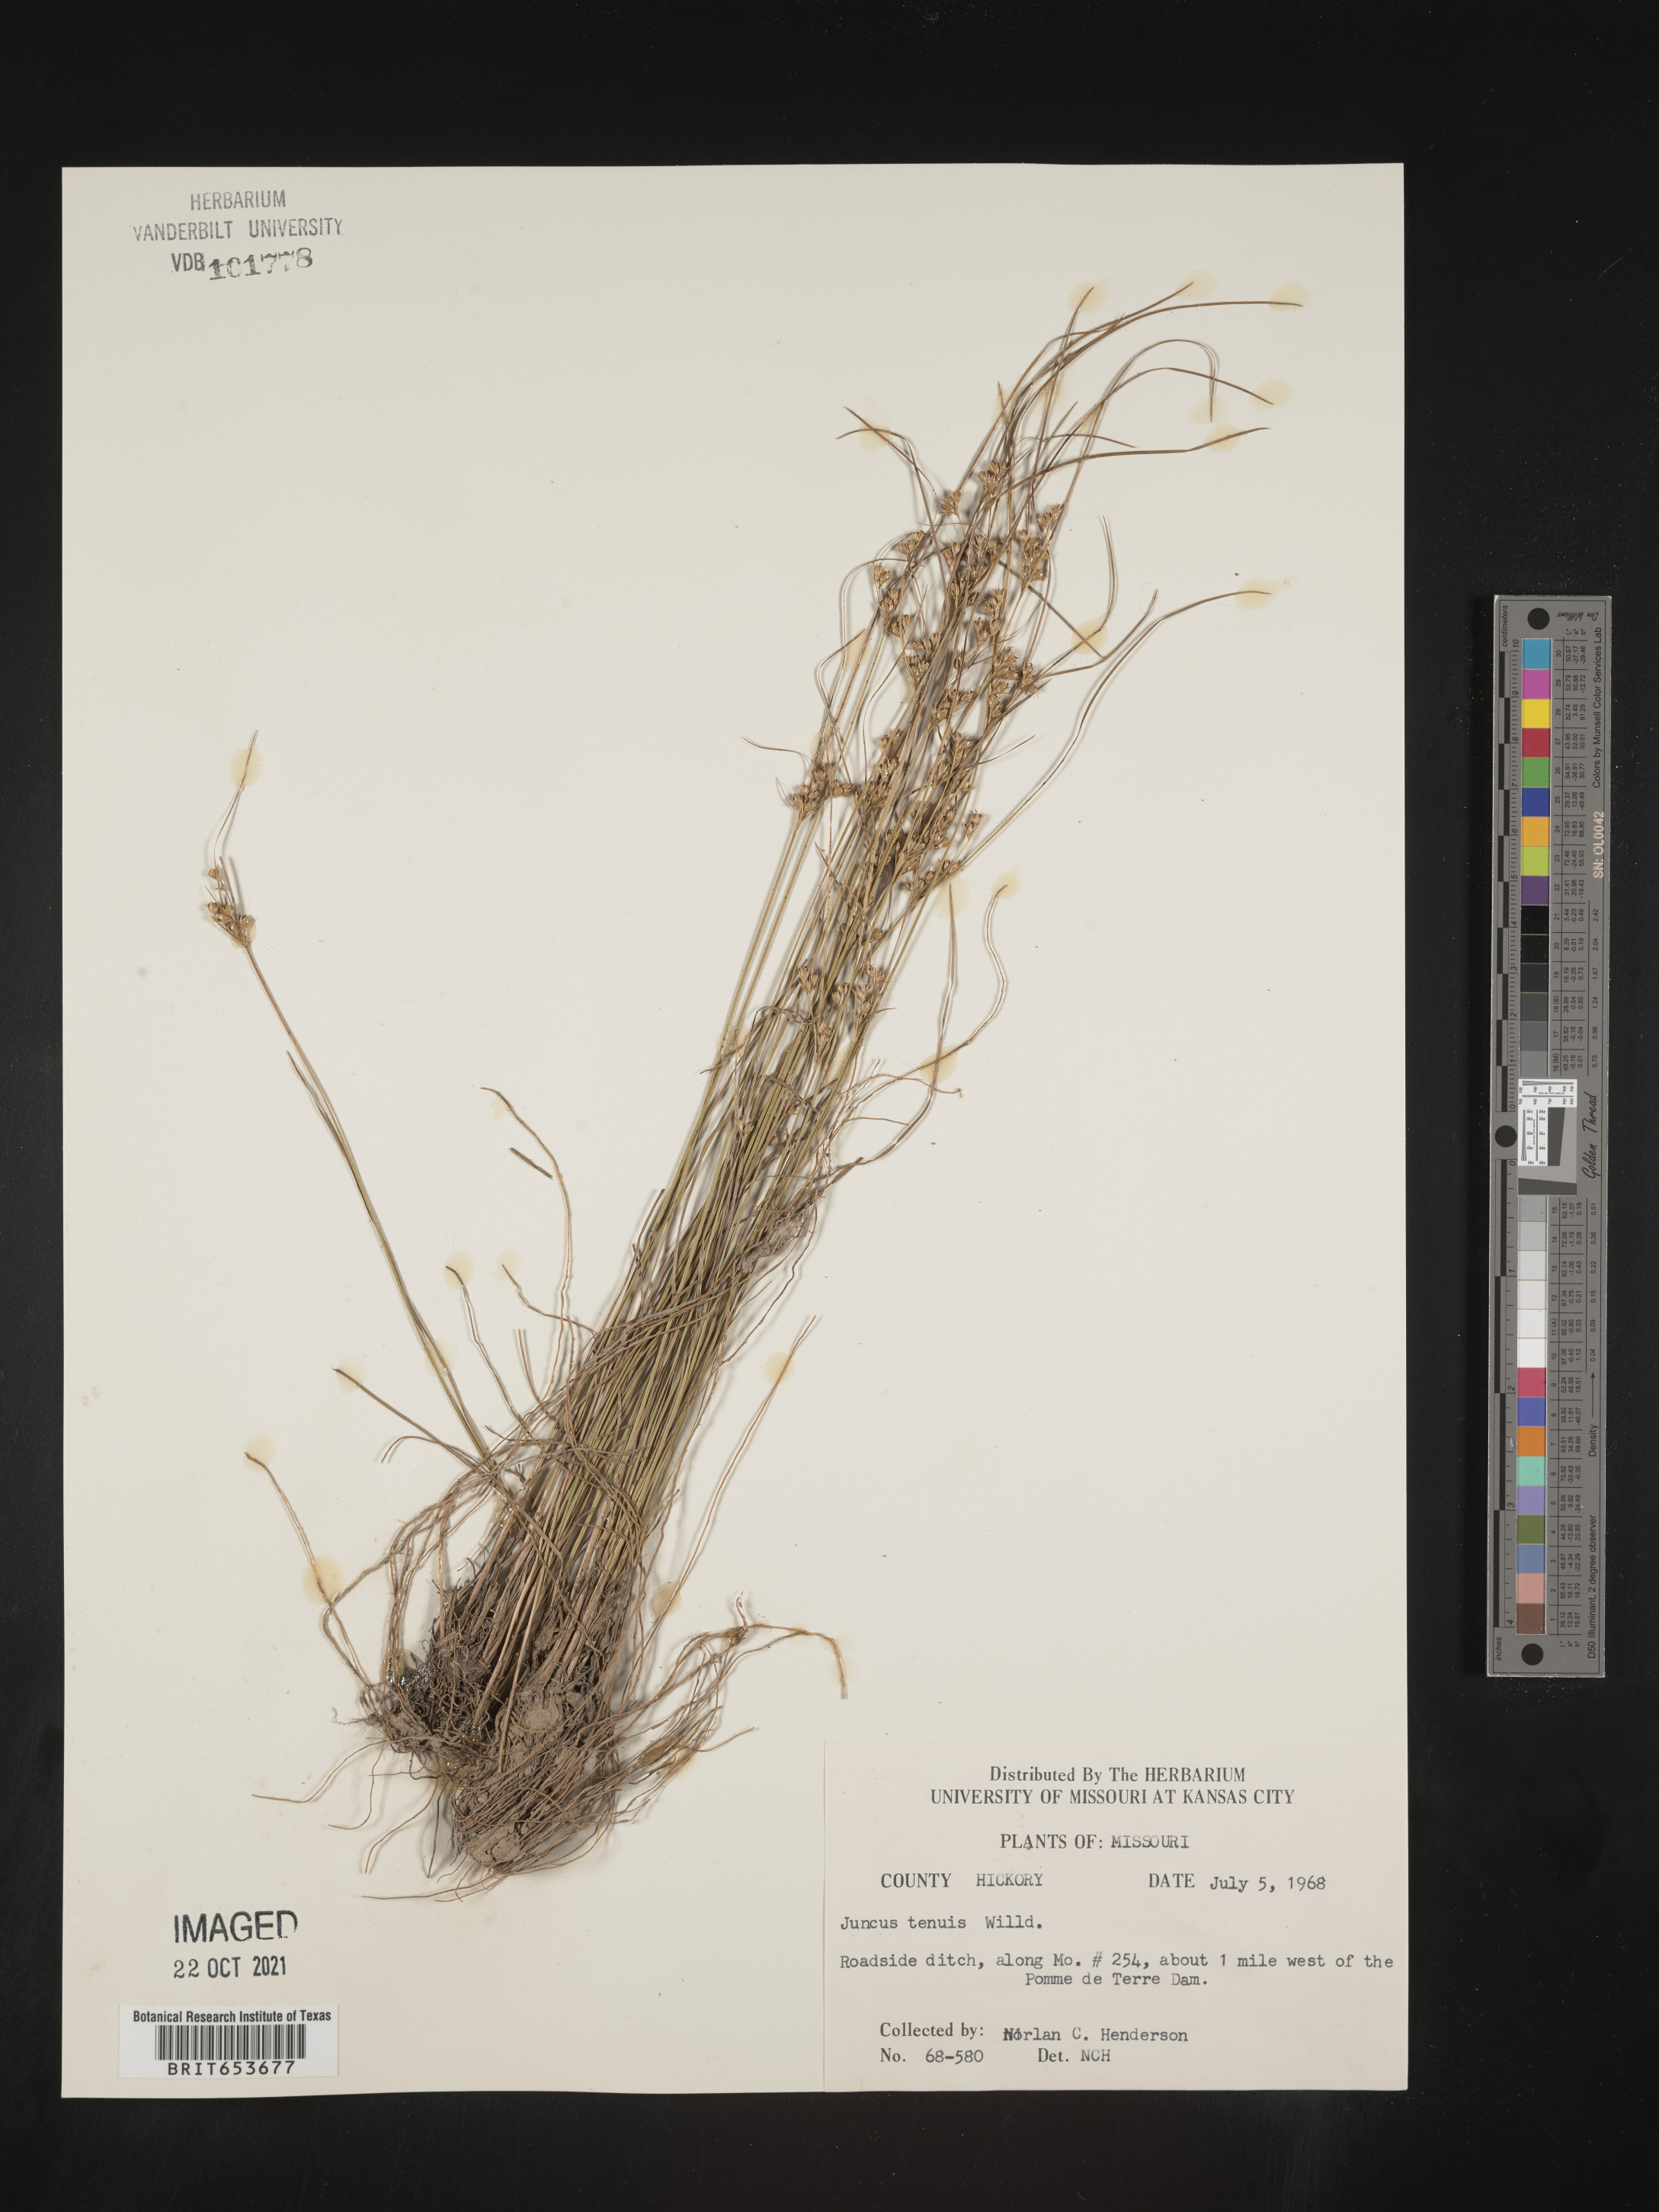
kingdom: Plantae
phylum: Tracheophyta
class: Liliopsida
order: Poales
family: Juncaceae
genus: Juncus
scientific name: Juncus tenuis
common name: Slender rush
